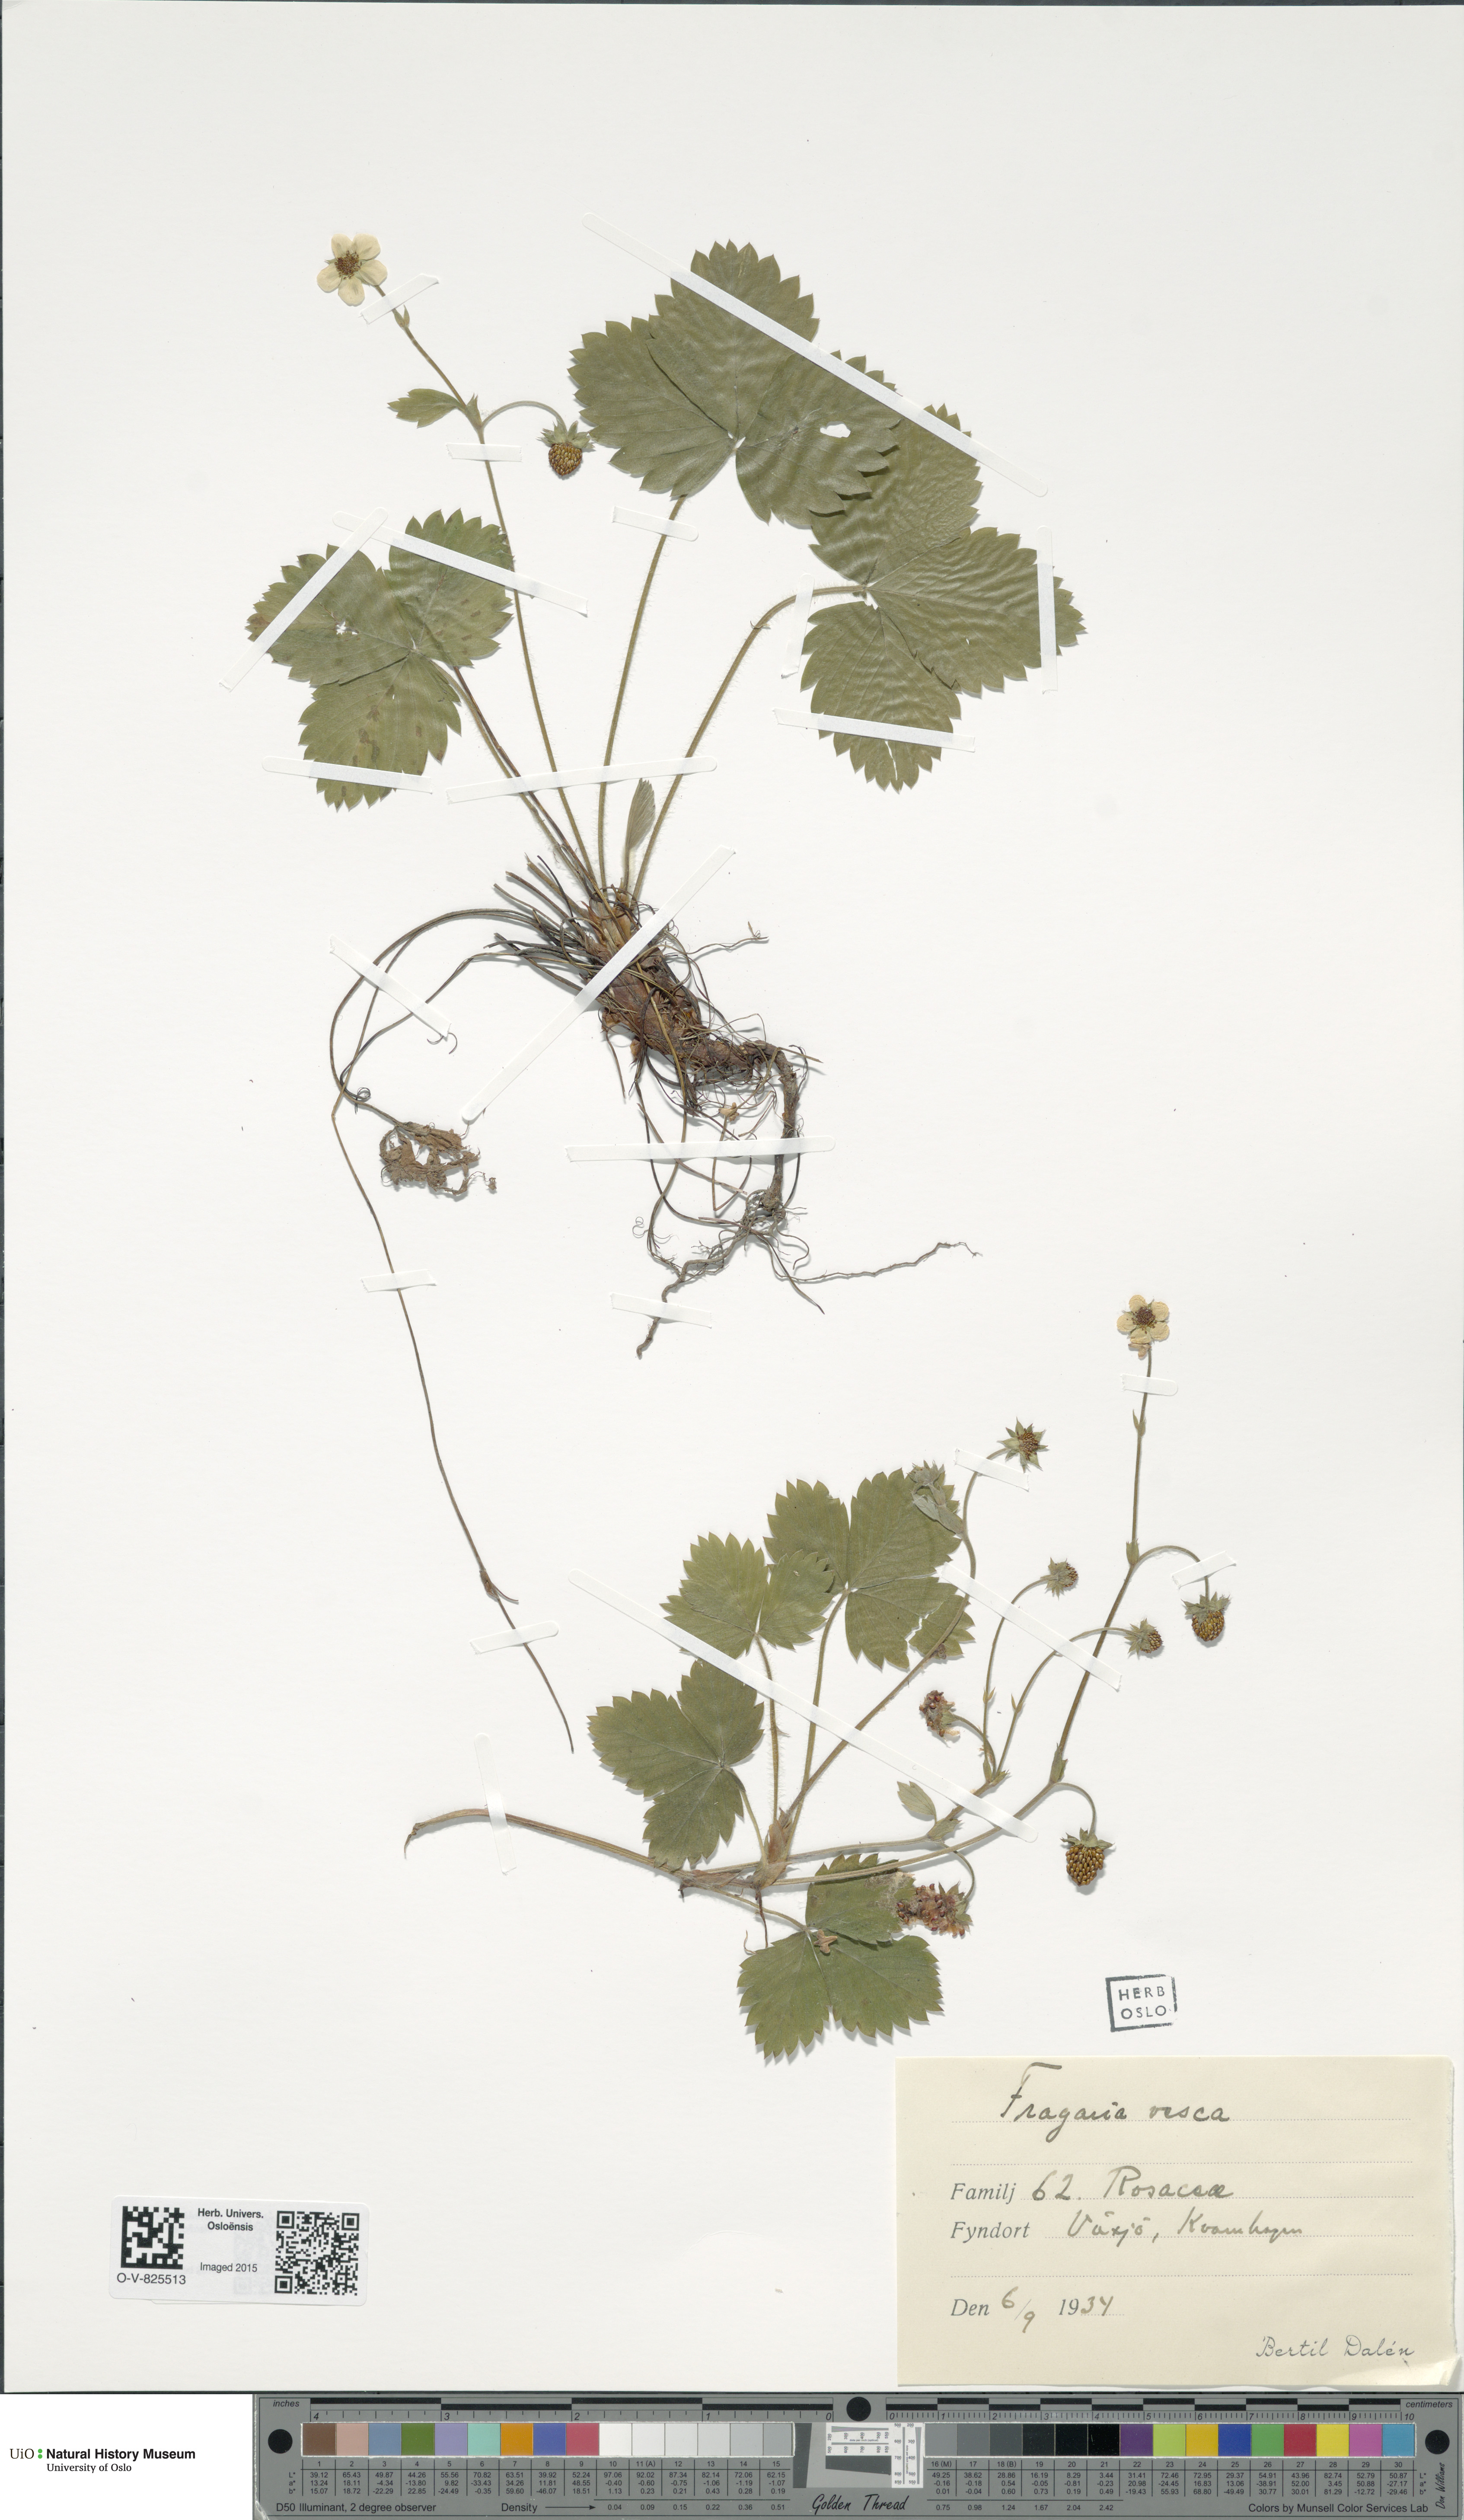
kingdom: Plantae
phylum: Tracheophyta
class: Magnoliopsida
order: Rosales
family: Rosaceae
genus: Fragaria
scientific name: Fragaria vesca
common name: Wild strawberry
